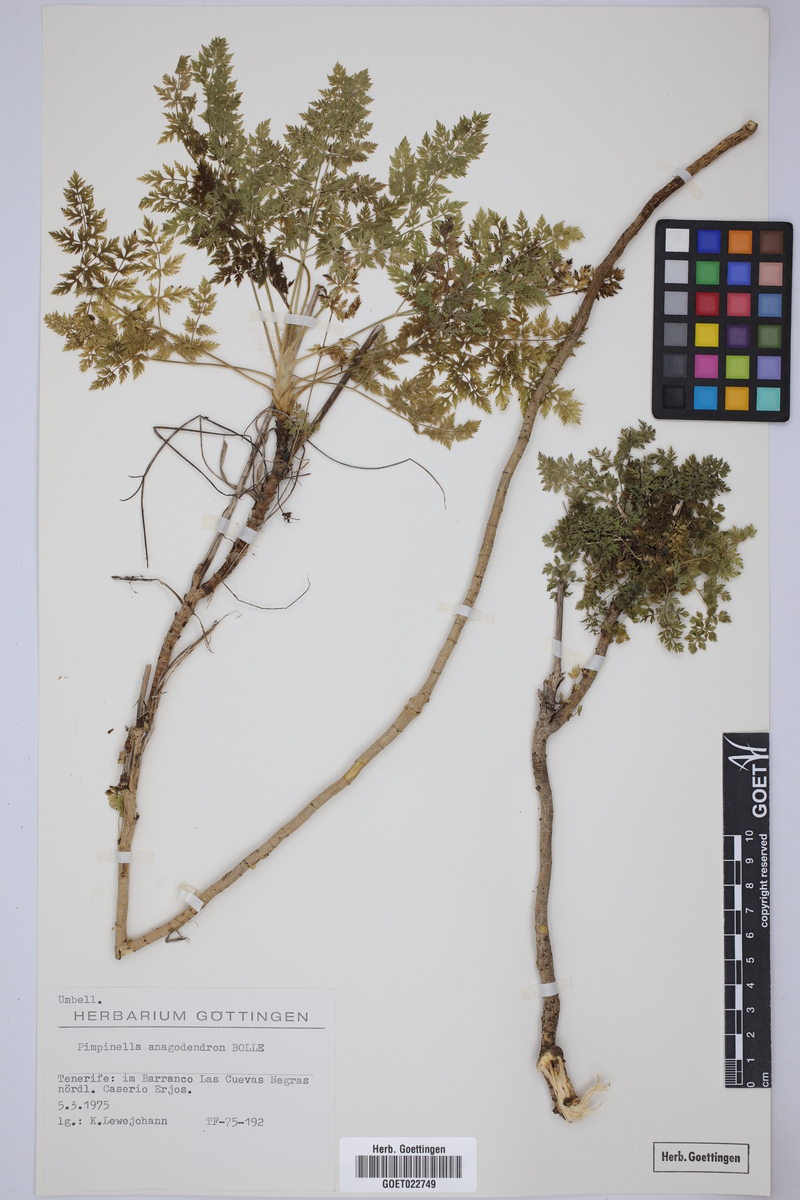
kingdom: Plantae
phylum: Tracheophyta
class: Magnoliopsida
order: Apiales
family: Apiaceae
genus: Pimpinella
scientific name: Pimpinella anagodendron
